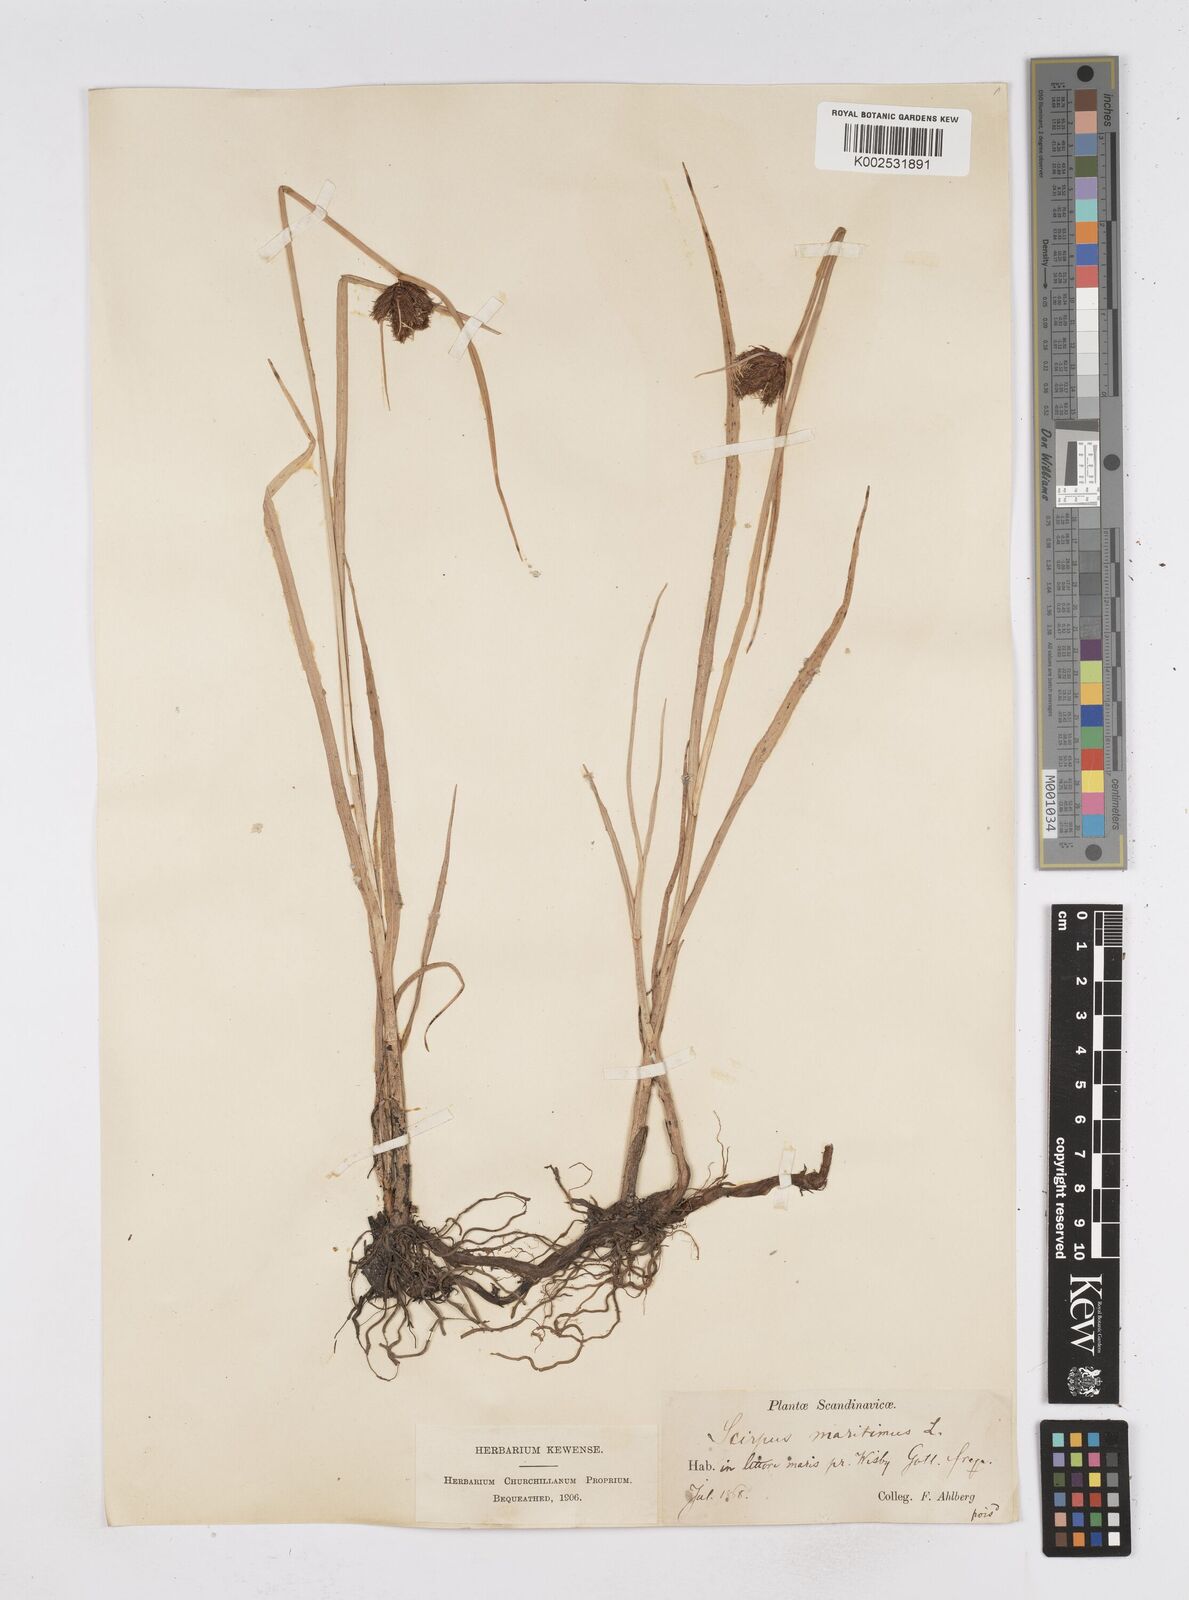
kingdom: Plantae
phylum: Tracheophyta
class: Liliopsida
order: Poales
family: Cyperaceae
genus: Bolboschoenus
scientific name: Bolboschoenus maritimus
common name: Sea club-rush
